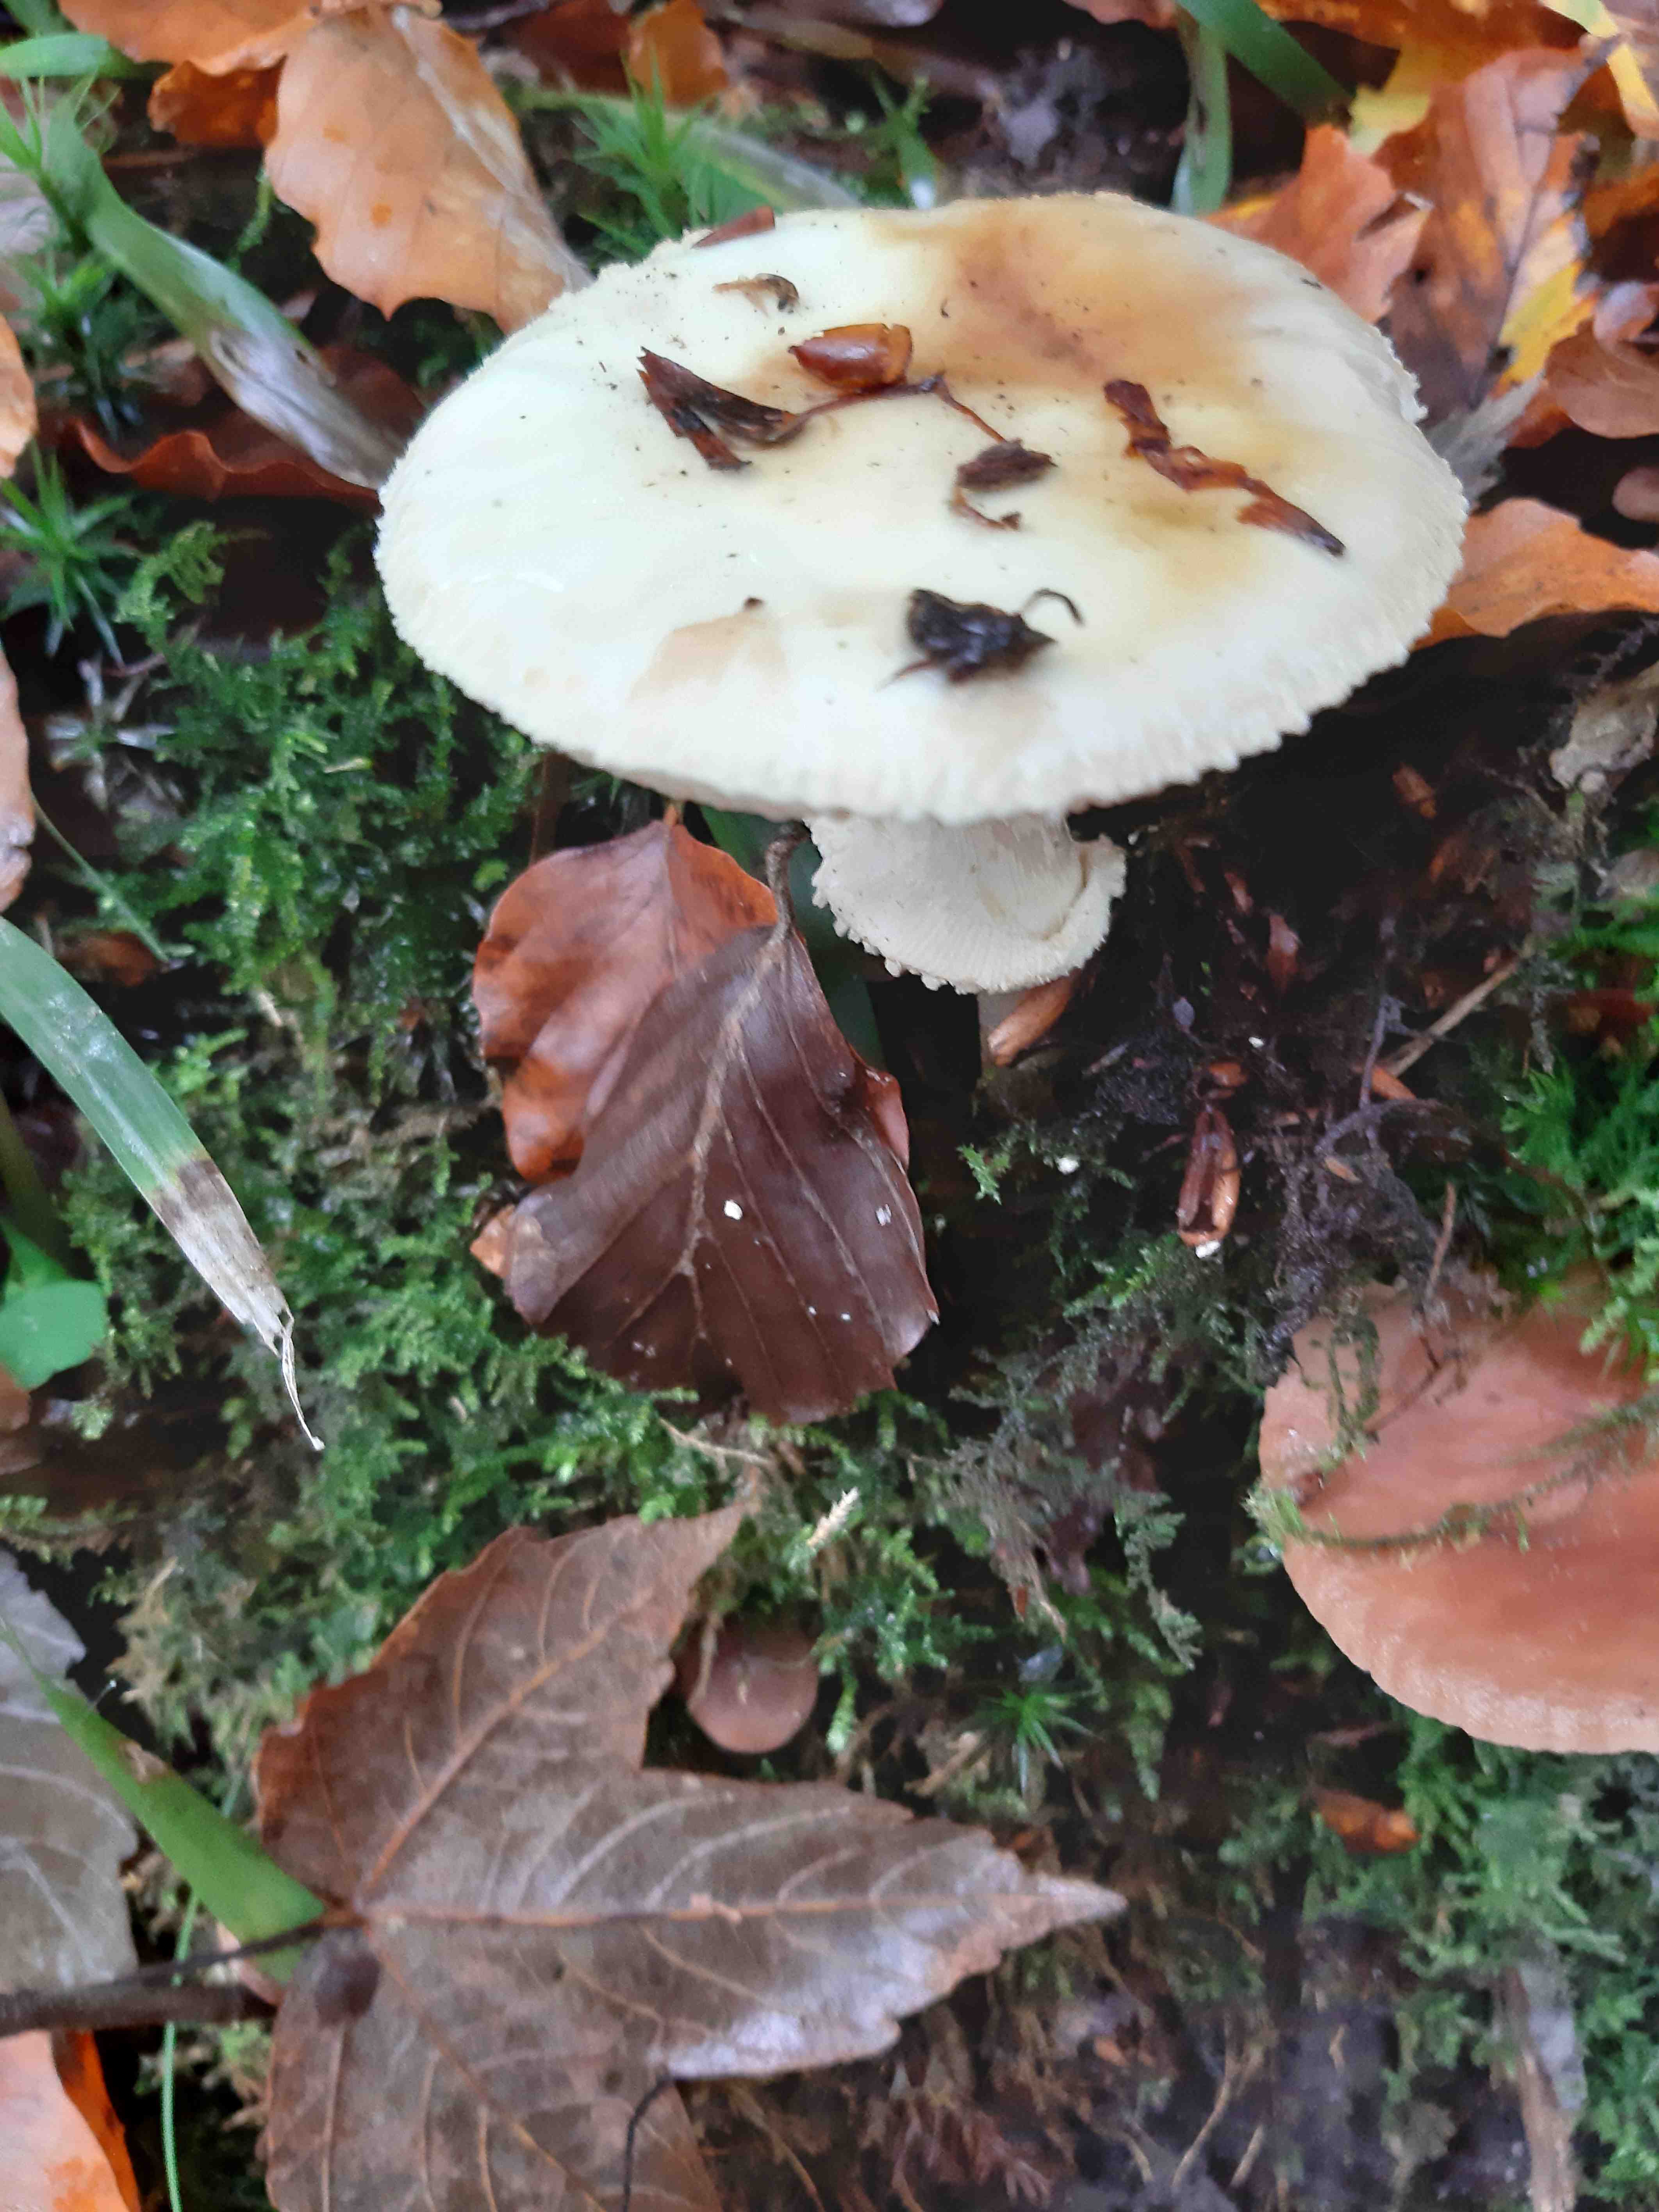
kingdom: Fungi
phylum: Basidiomycota
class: Agaricomycetes
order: Agaricales
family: Amanitaceae
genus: Amanita
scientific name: Amanita citrina
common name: kugleknoldet fluesvamp
